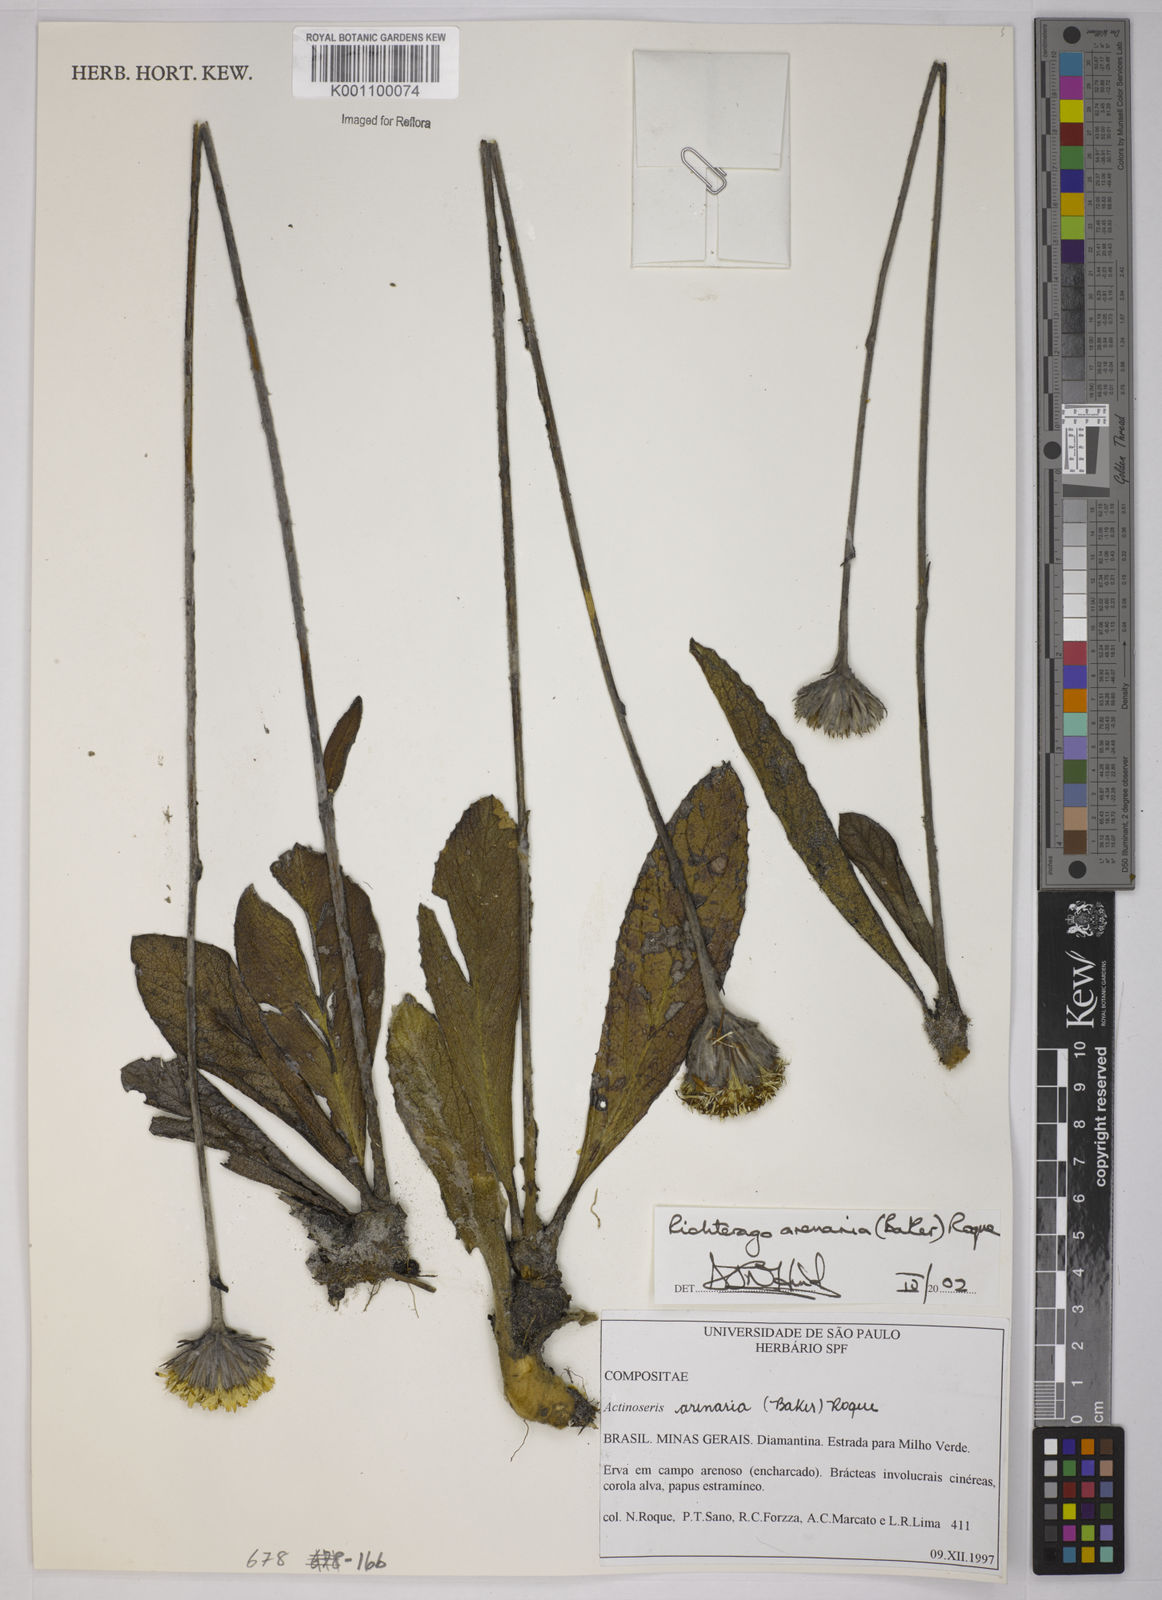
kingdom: Plantae
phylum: Tracheophyta
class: Magnoliopsida
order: Asterales
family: Asteraceae
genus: Richterago
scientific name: Richterago arenaria
